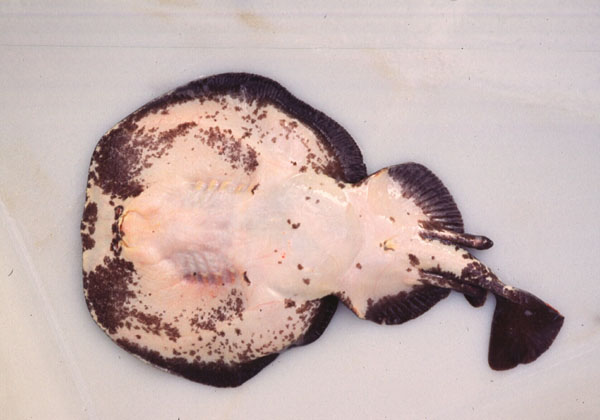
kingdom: Animalia
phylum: Chordata
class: Elasmobranchii
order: Torpediniformes
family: Torpedinidae
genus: Torpedo
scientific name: Torpedo fuscomaculata
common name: Blackspotted electric ray
